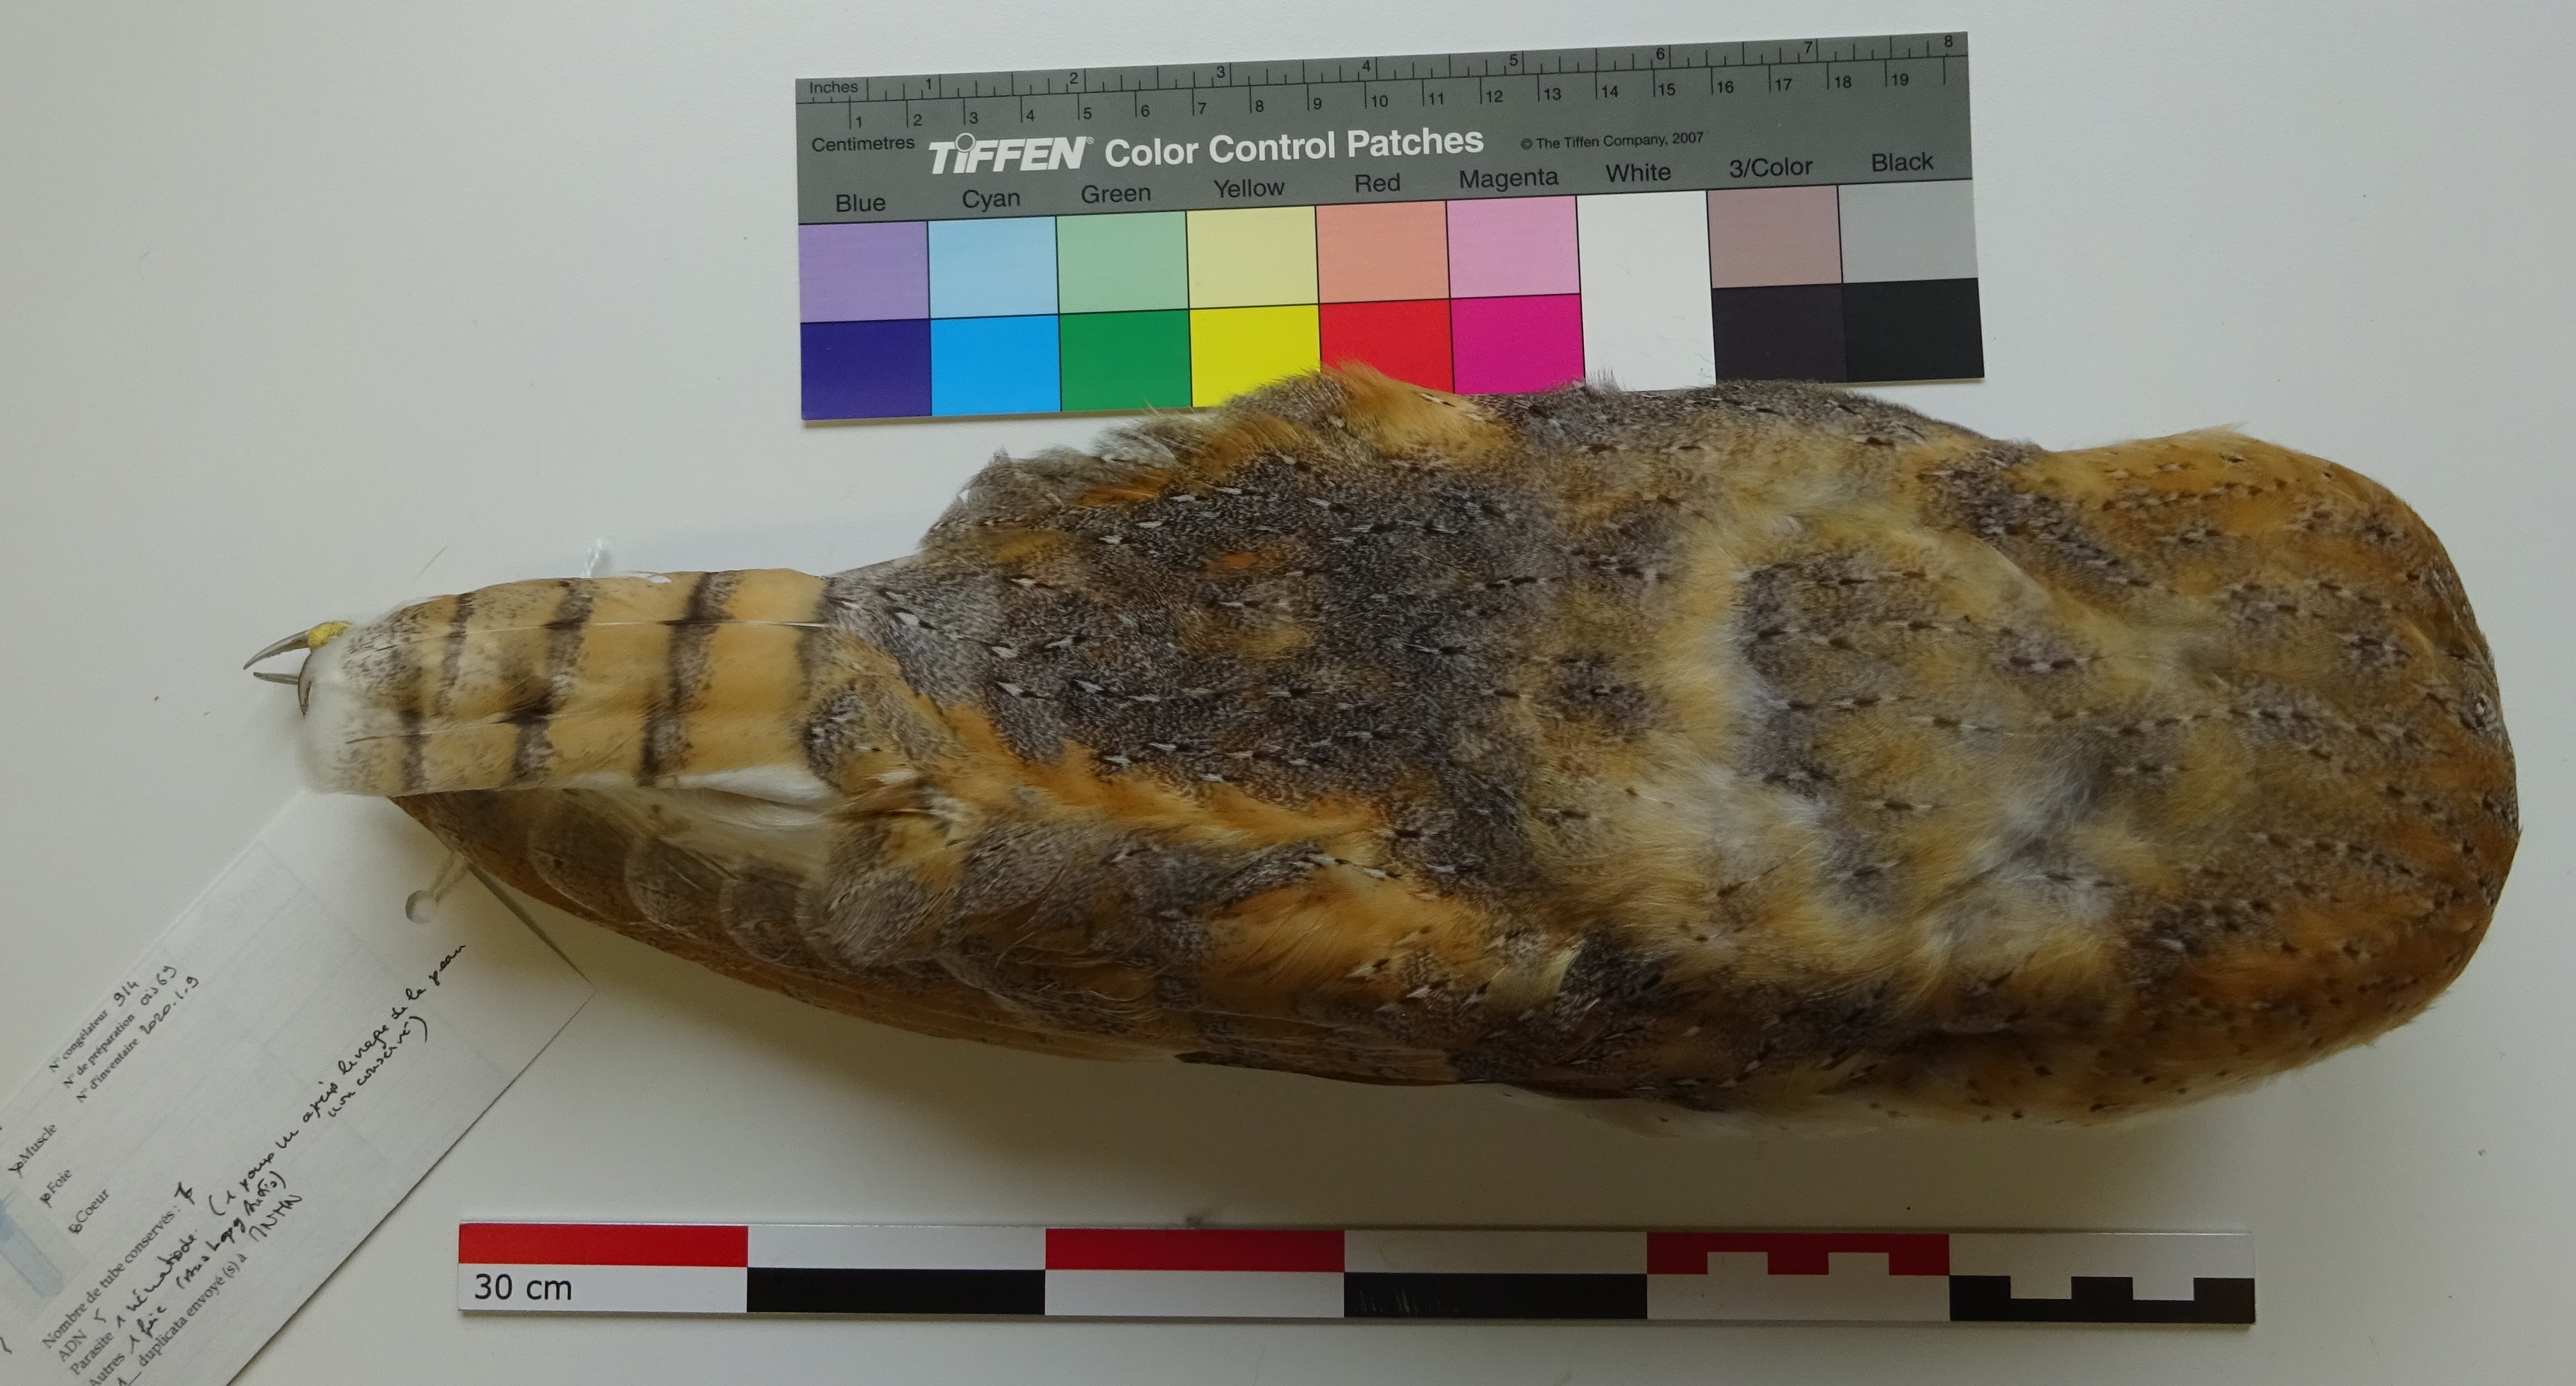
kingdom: Animalia
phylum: Chordata
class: Aves
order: Strigiformes
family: Tytonidae
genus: Tyto
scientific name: Tyto alba
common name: Barn owl
